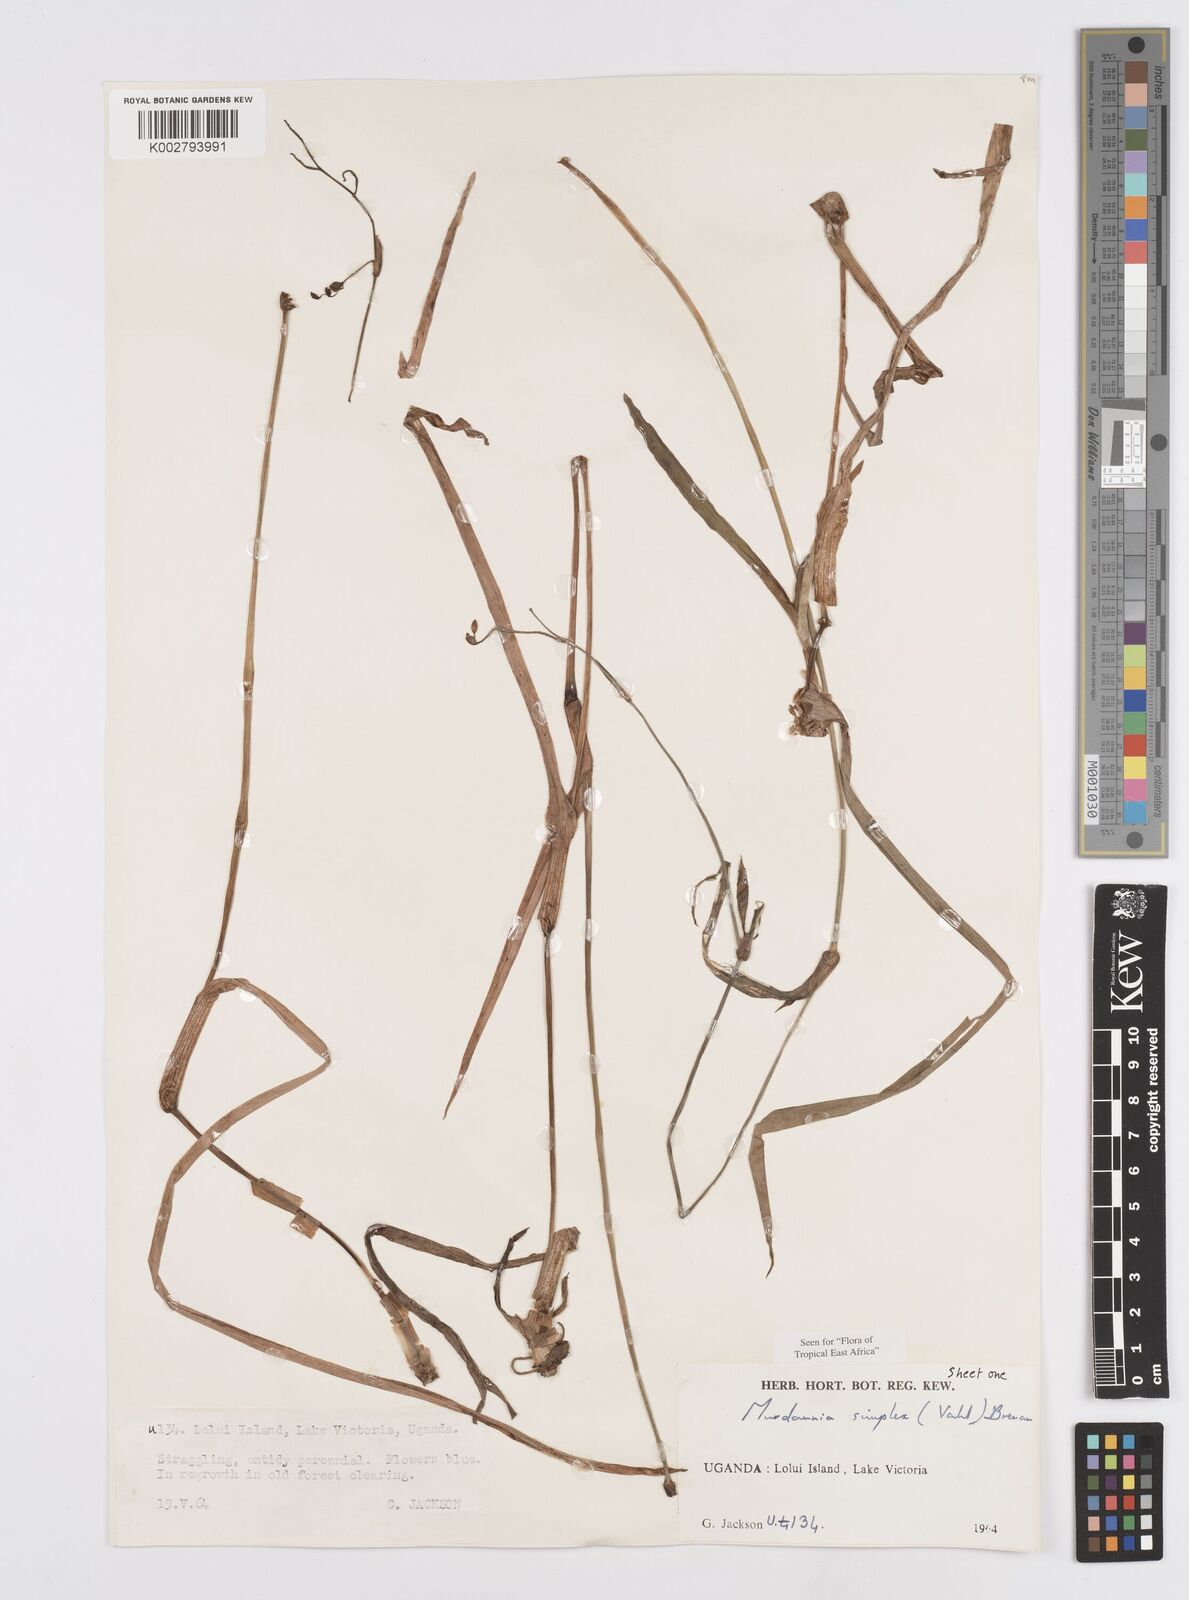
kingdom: Plantae
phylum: Tracheophyta
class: Liliopsida
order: Commelinales
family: Commelinaceae
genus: Murdannia
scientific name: Murdannia simplex
